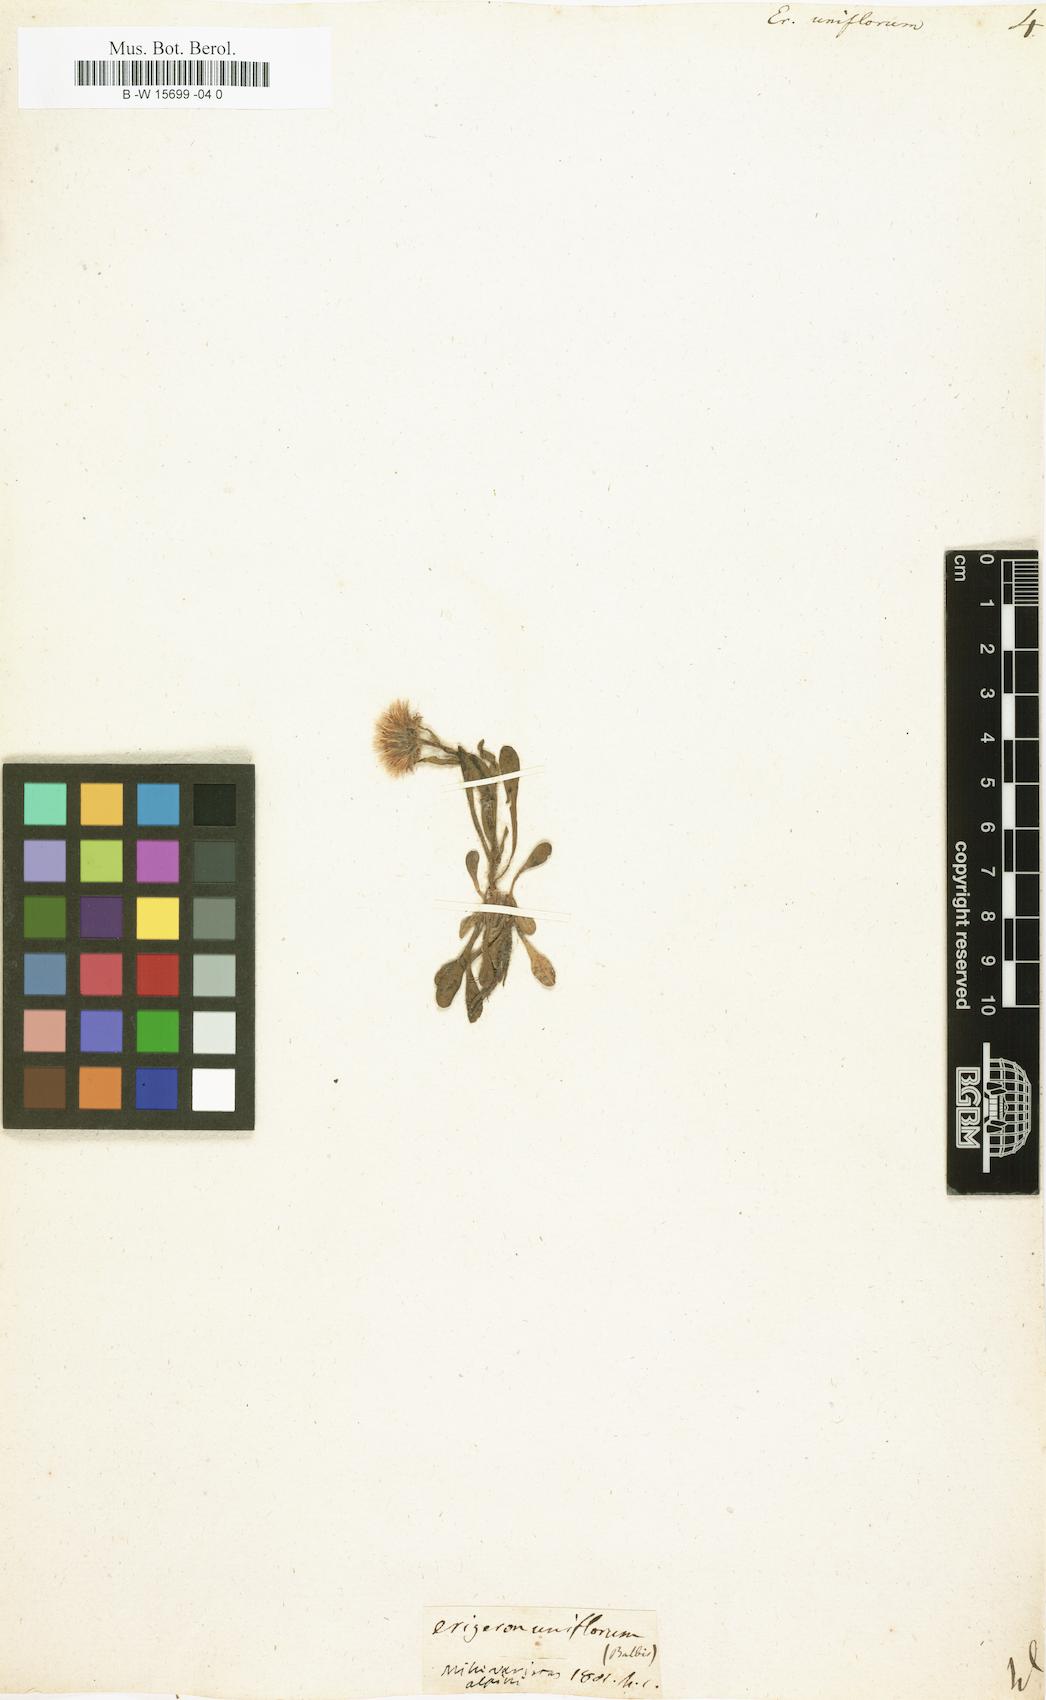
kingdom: Plantae
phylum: Tracheophyta
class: Magnoliopsida
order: Asterales
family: Asteraceae
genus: Erigeron
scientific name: Erigeron uniflorus
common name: Northern daisy
